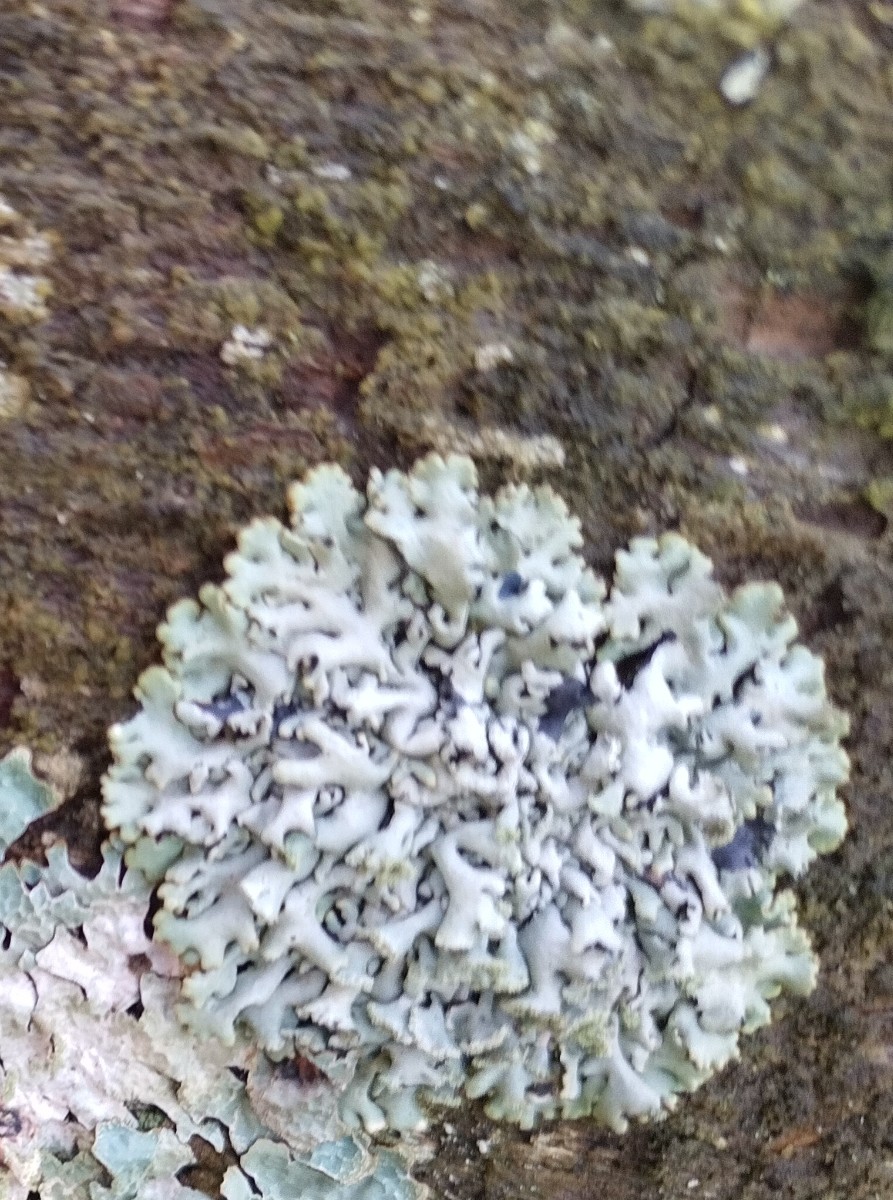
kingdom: Fungi
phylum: Ascomycota
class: Lecanoromycetes
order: Lecanorales
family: Parmeliaceae
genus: Hypogymnia
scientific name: Hypogymnia physodes
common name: almindelig kvistlav
